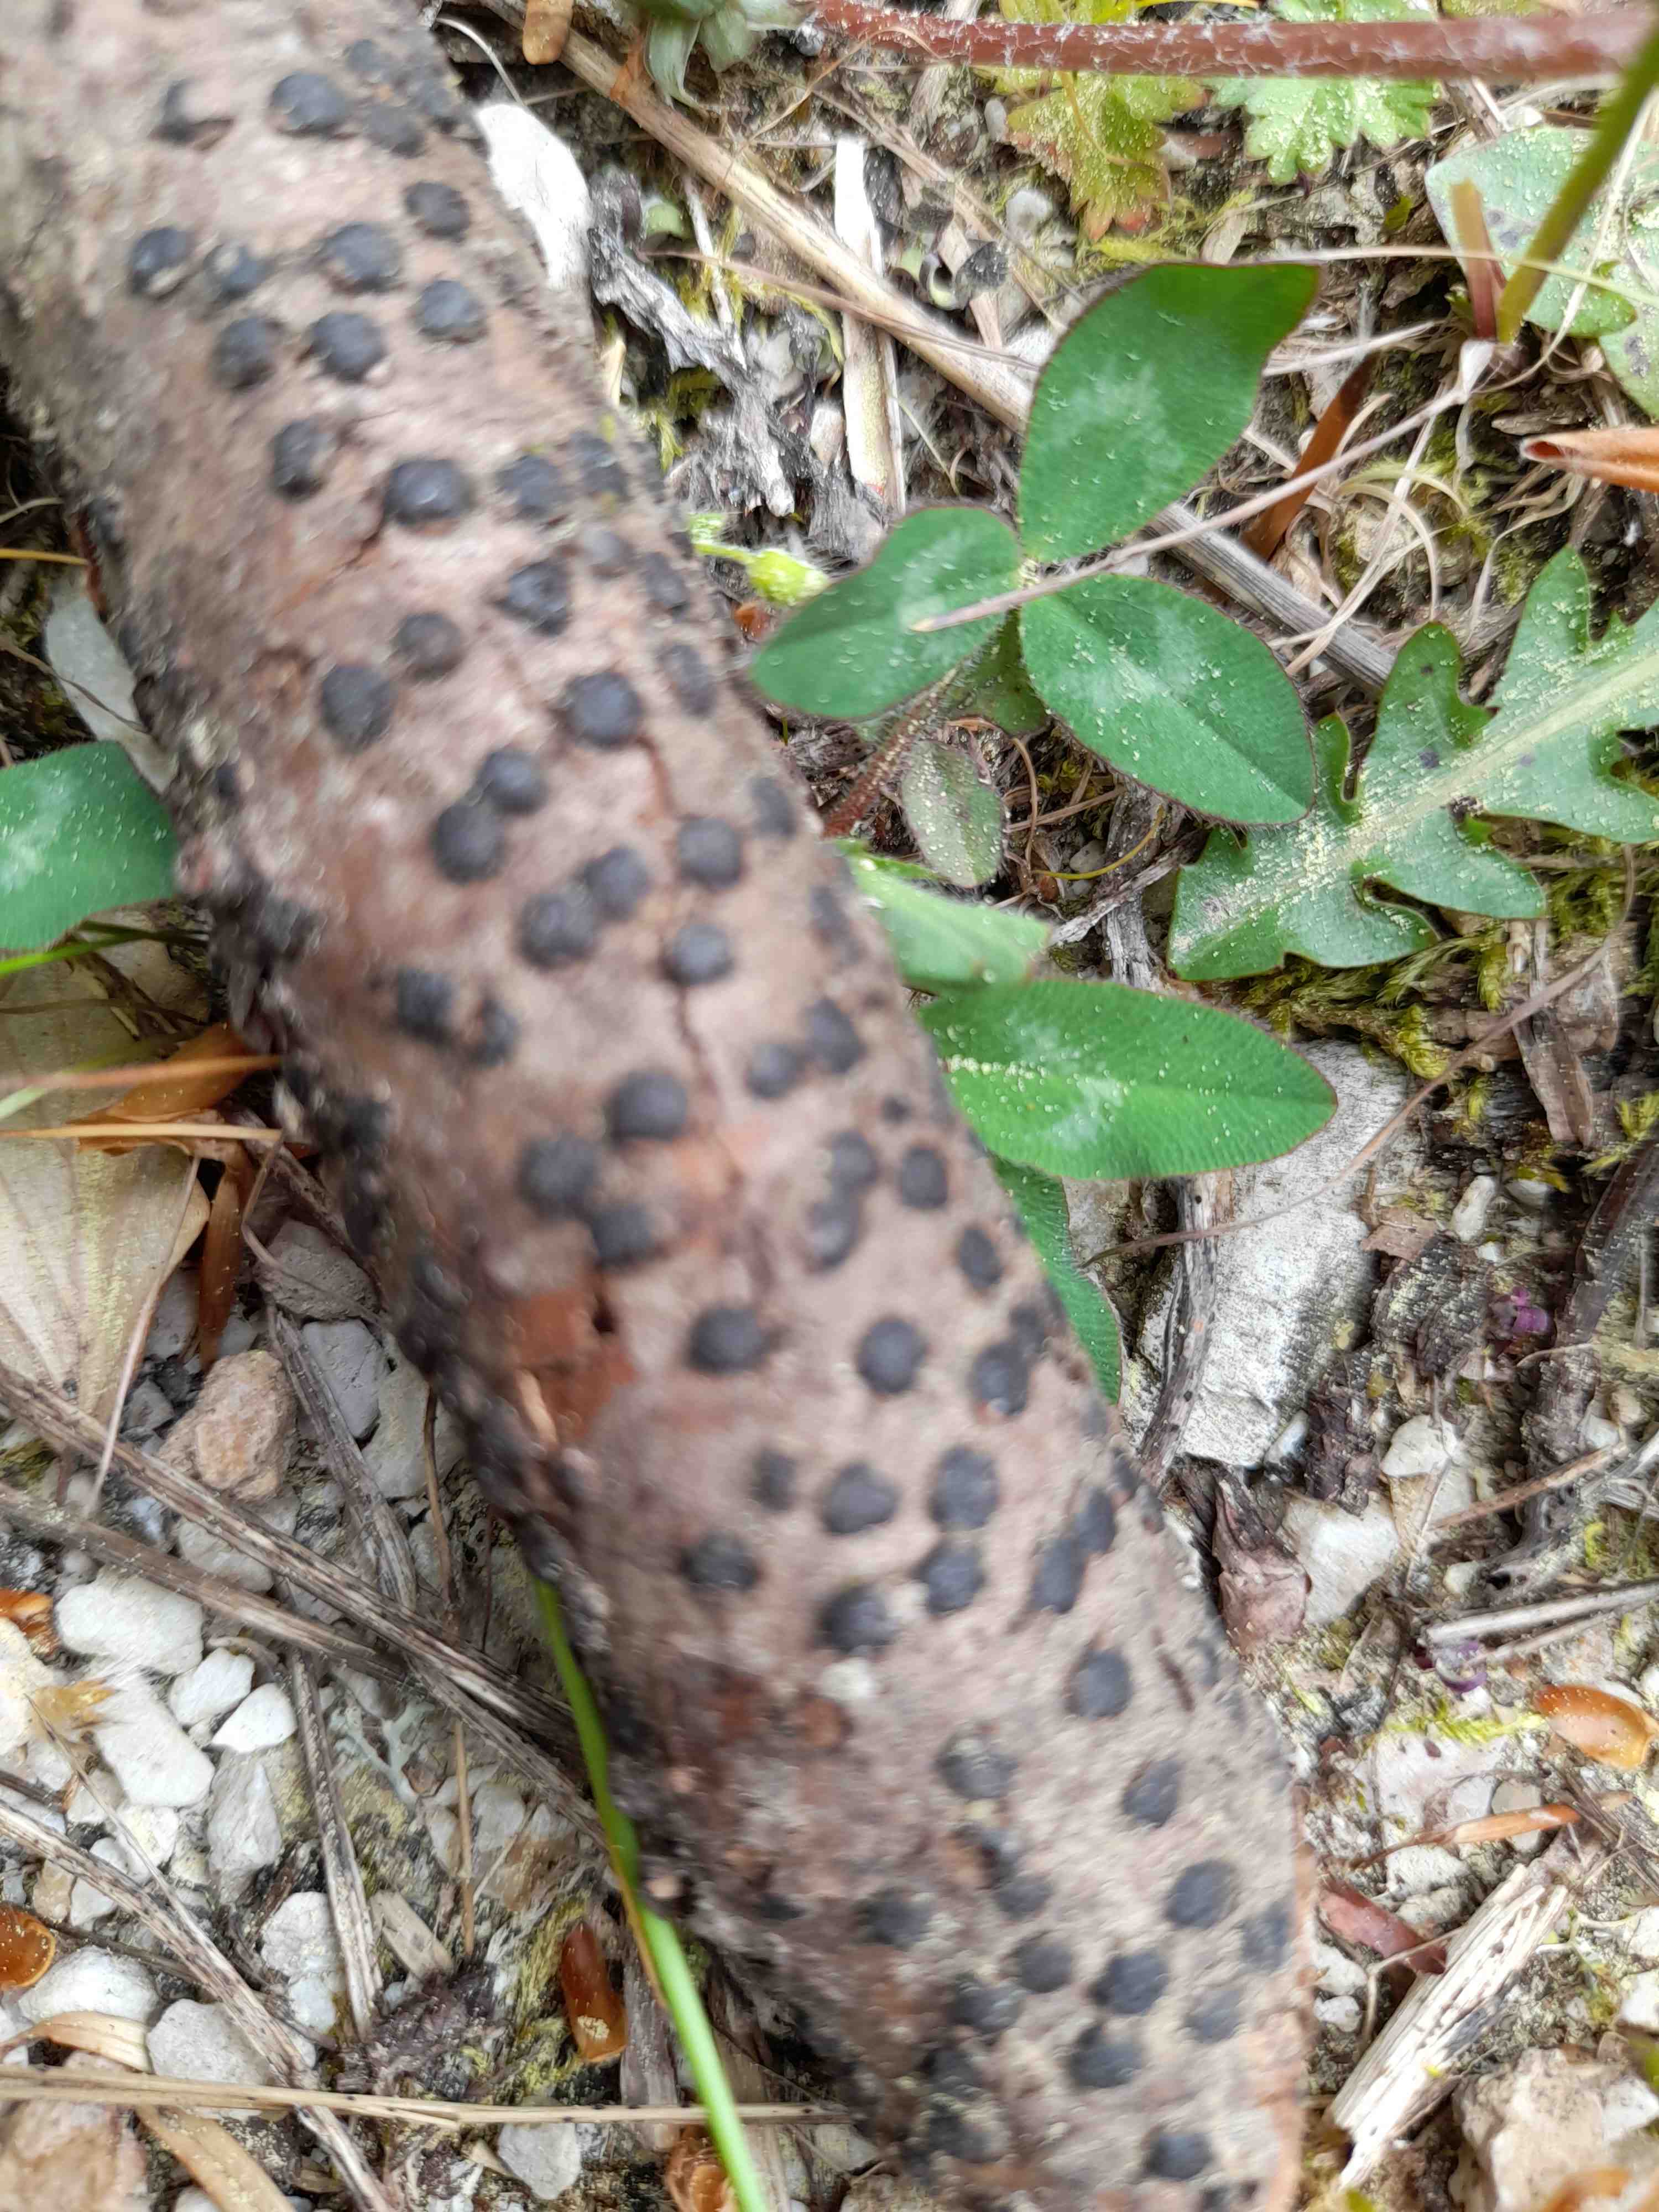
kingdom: Fungi
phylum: Ascomycota
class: Sordariomycetes
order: Xylariales
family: Diatrypaceae
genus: Diatrype
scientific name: Diatrype disciformis
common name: kant-kulskorpe
